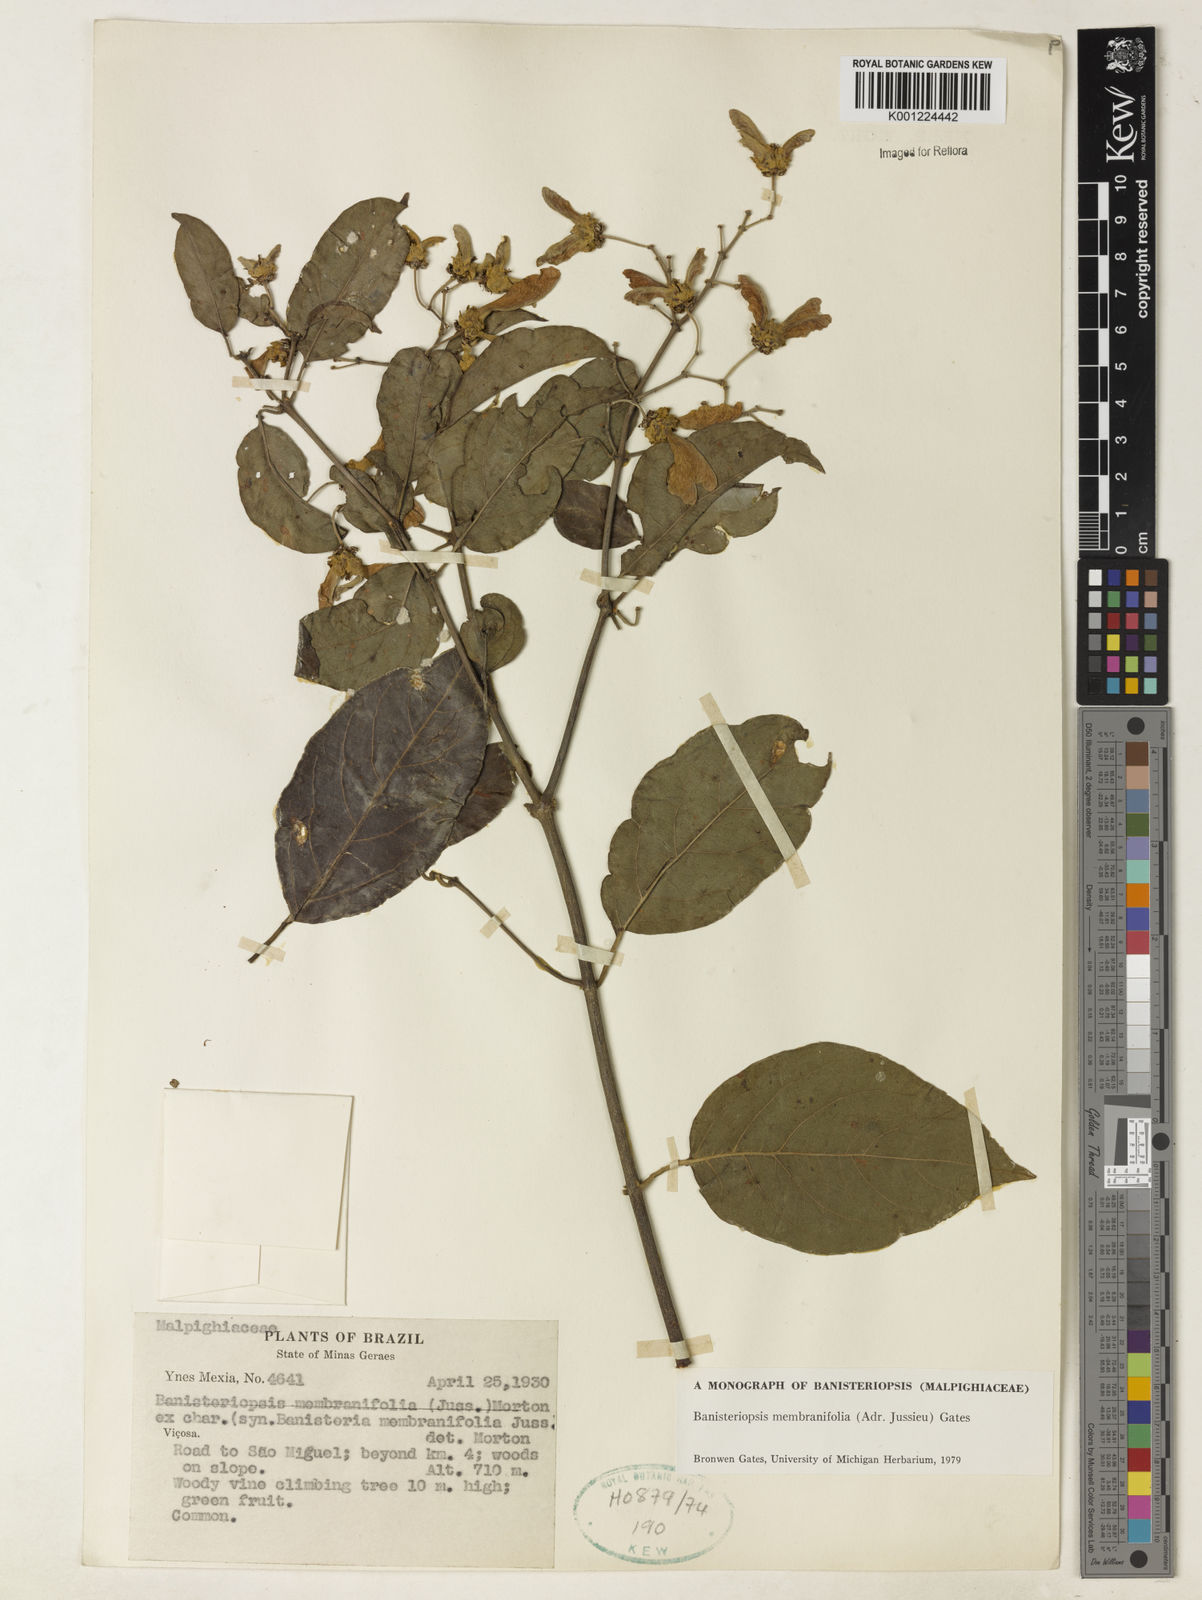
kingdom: Plantae
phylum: Tracheophyta
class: Magnoliopsida
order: Malpighiales
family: Malpighiaceae
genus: Banisteriopsis
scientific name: Banisteriopsis membranifolia
